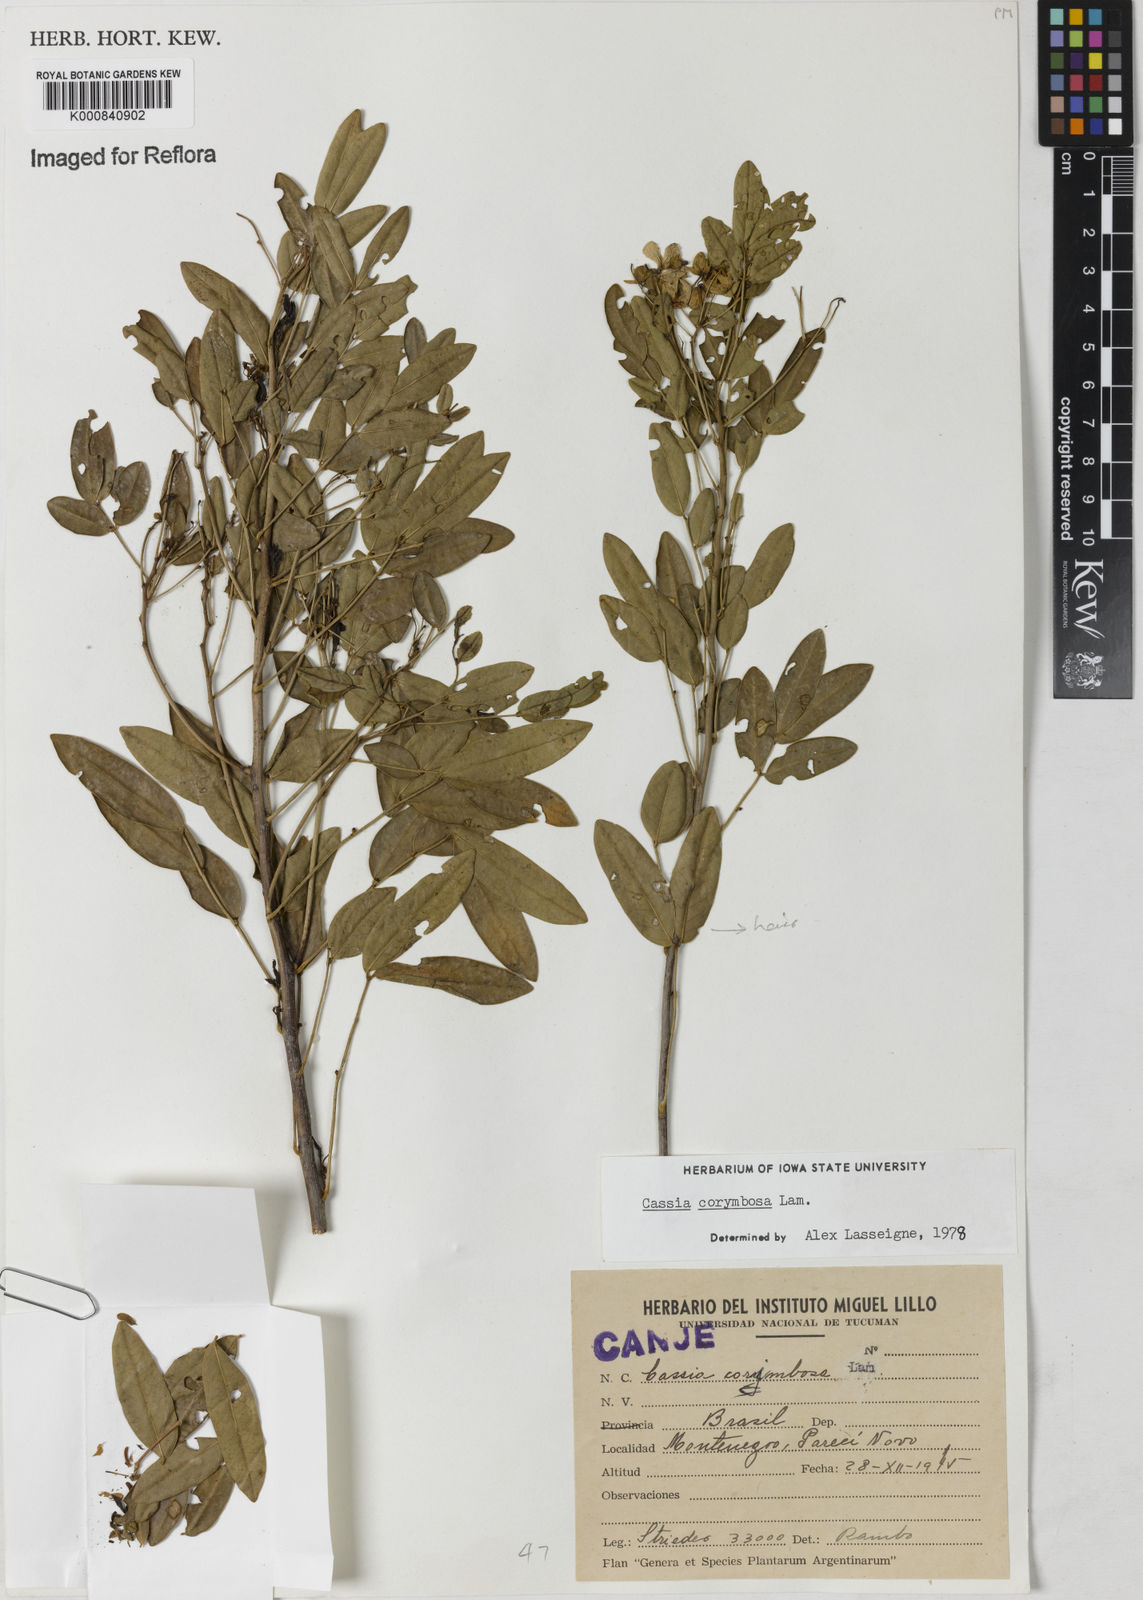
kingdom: Plantae
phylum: Tracheophyta
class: Magnoliopsida
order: Fabales
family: Fabaceae
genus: Senna
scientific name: Senna corymbosa
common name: Argentine senna
